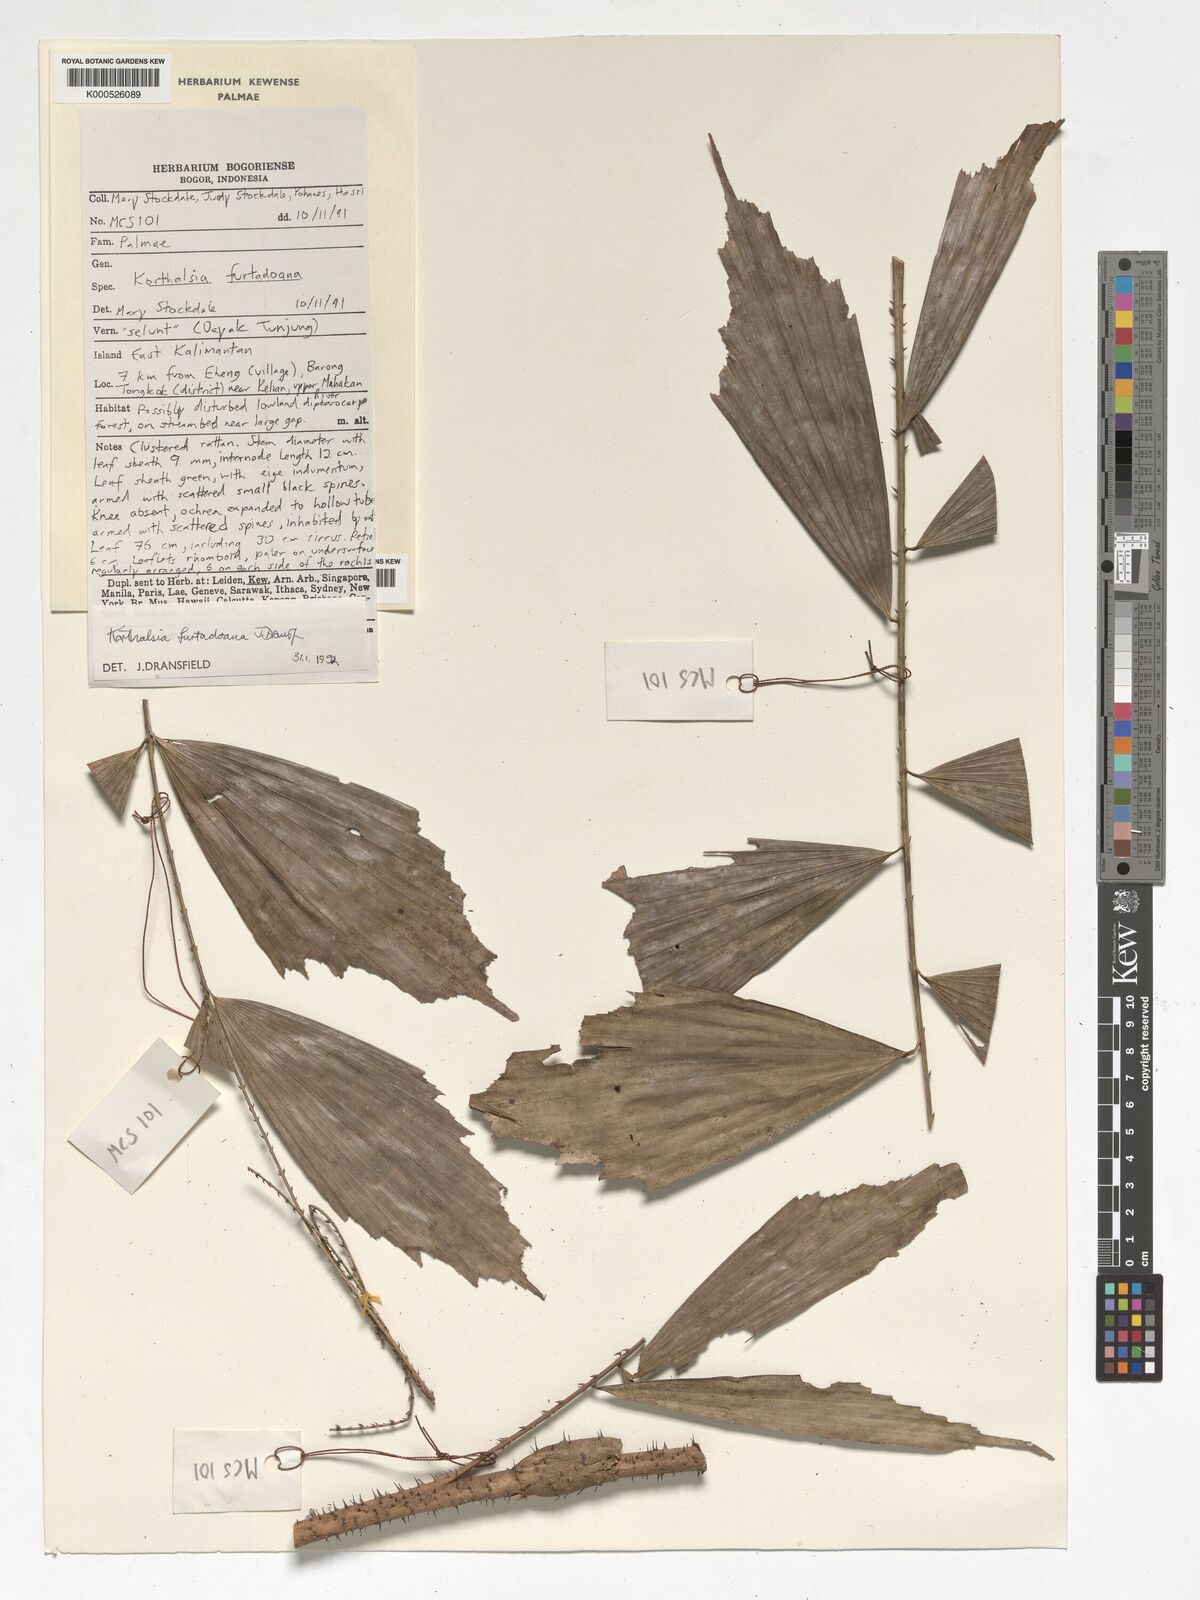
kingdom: Plantae
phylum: Tracheophyta
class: Liliopsida
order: Arecales
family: Arecaceae
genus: Korthalsia
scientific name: Korthalsia furtadoana
